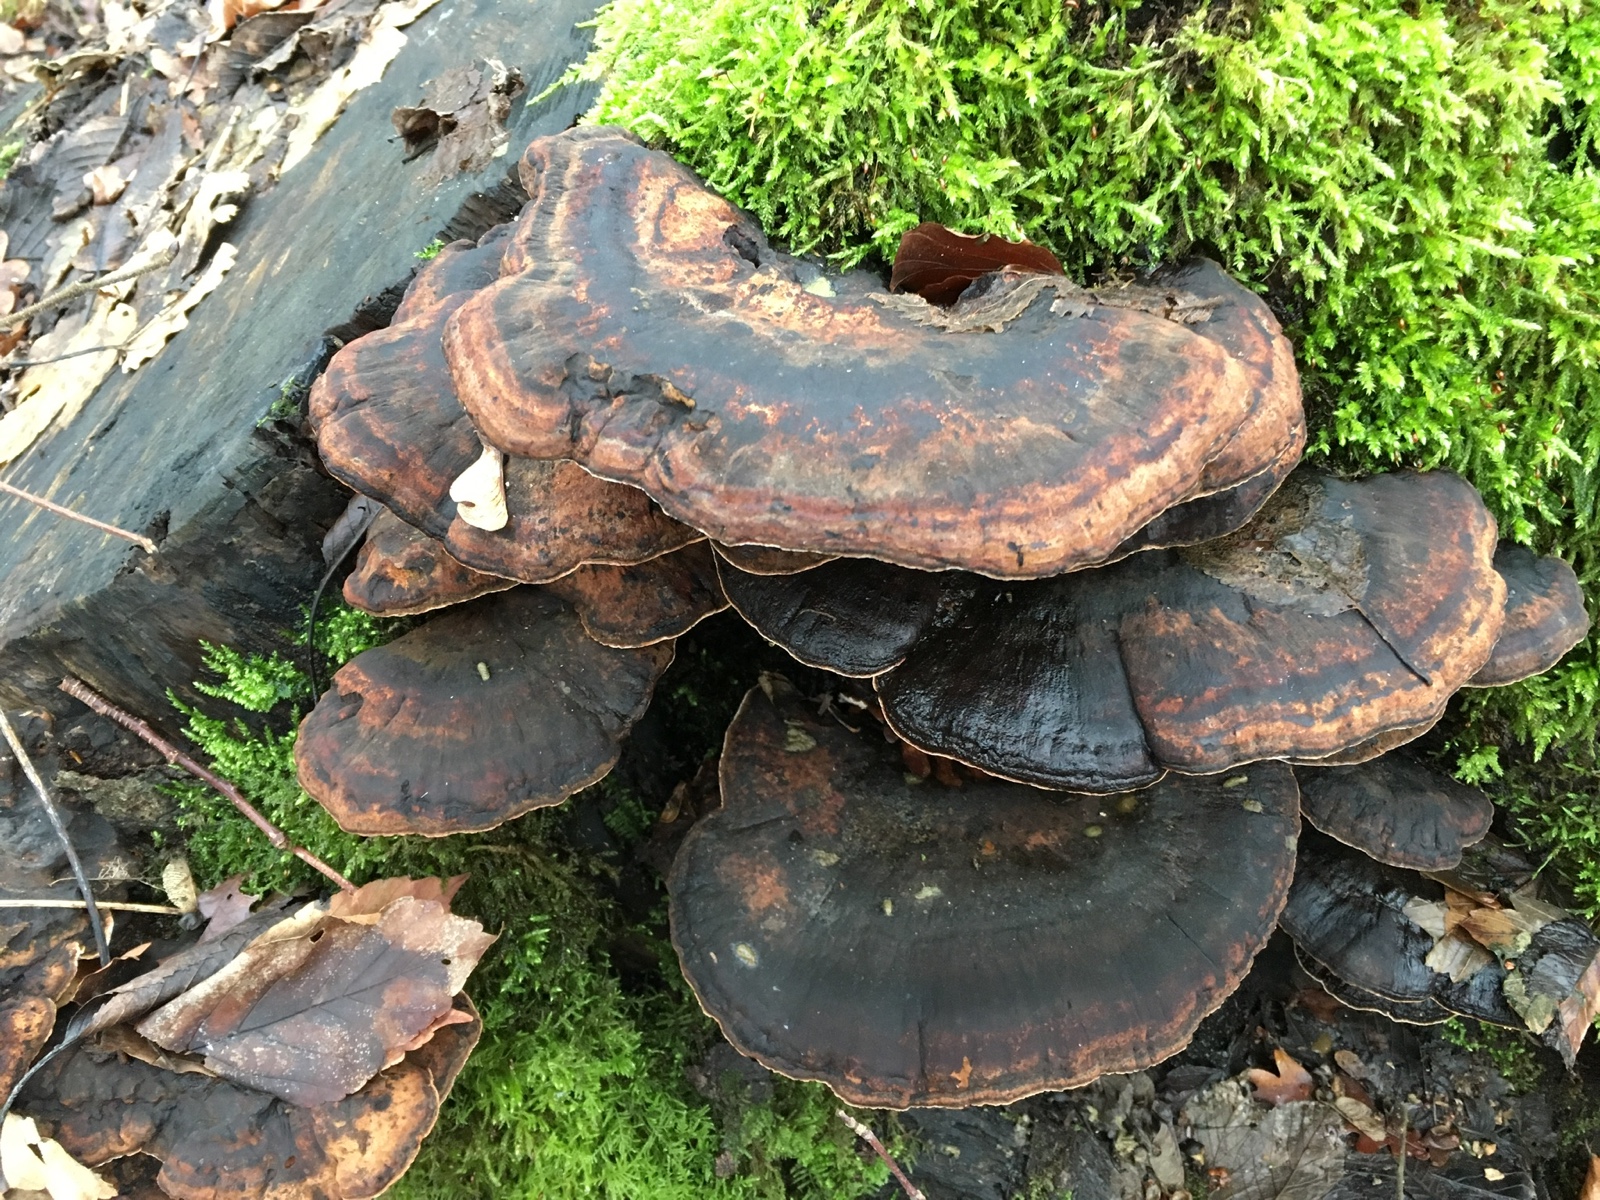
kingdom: Fungi
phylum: Basidiomycota
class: Agaricomycetes
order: Polyporales
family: Ischnodermataceae
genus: Ischnoderma
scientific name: Ischnoderma resinosum
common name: løv-tjæreporesvamp
